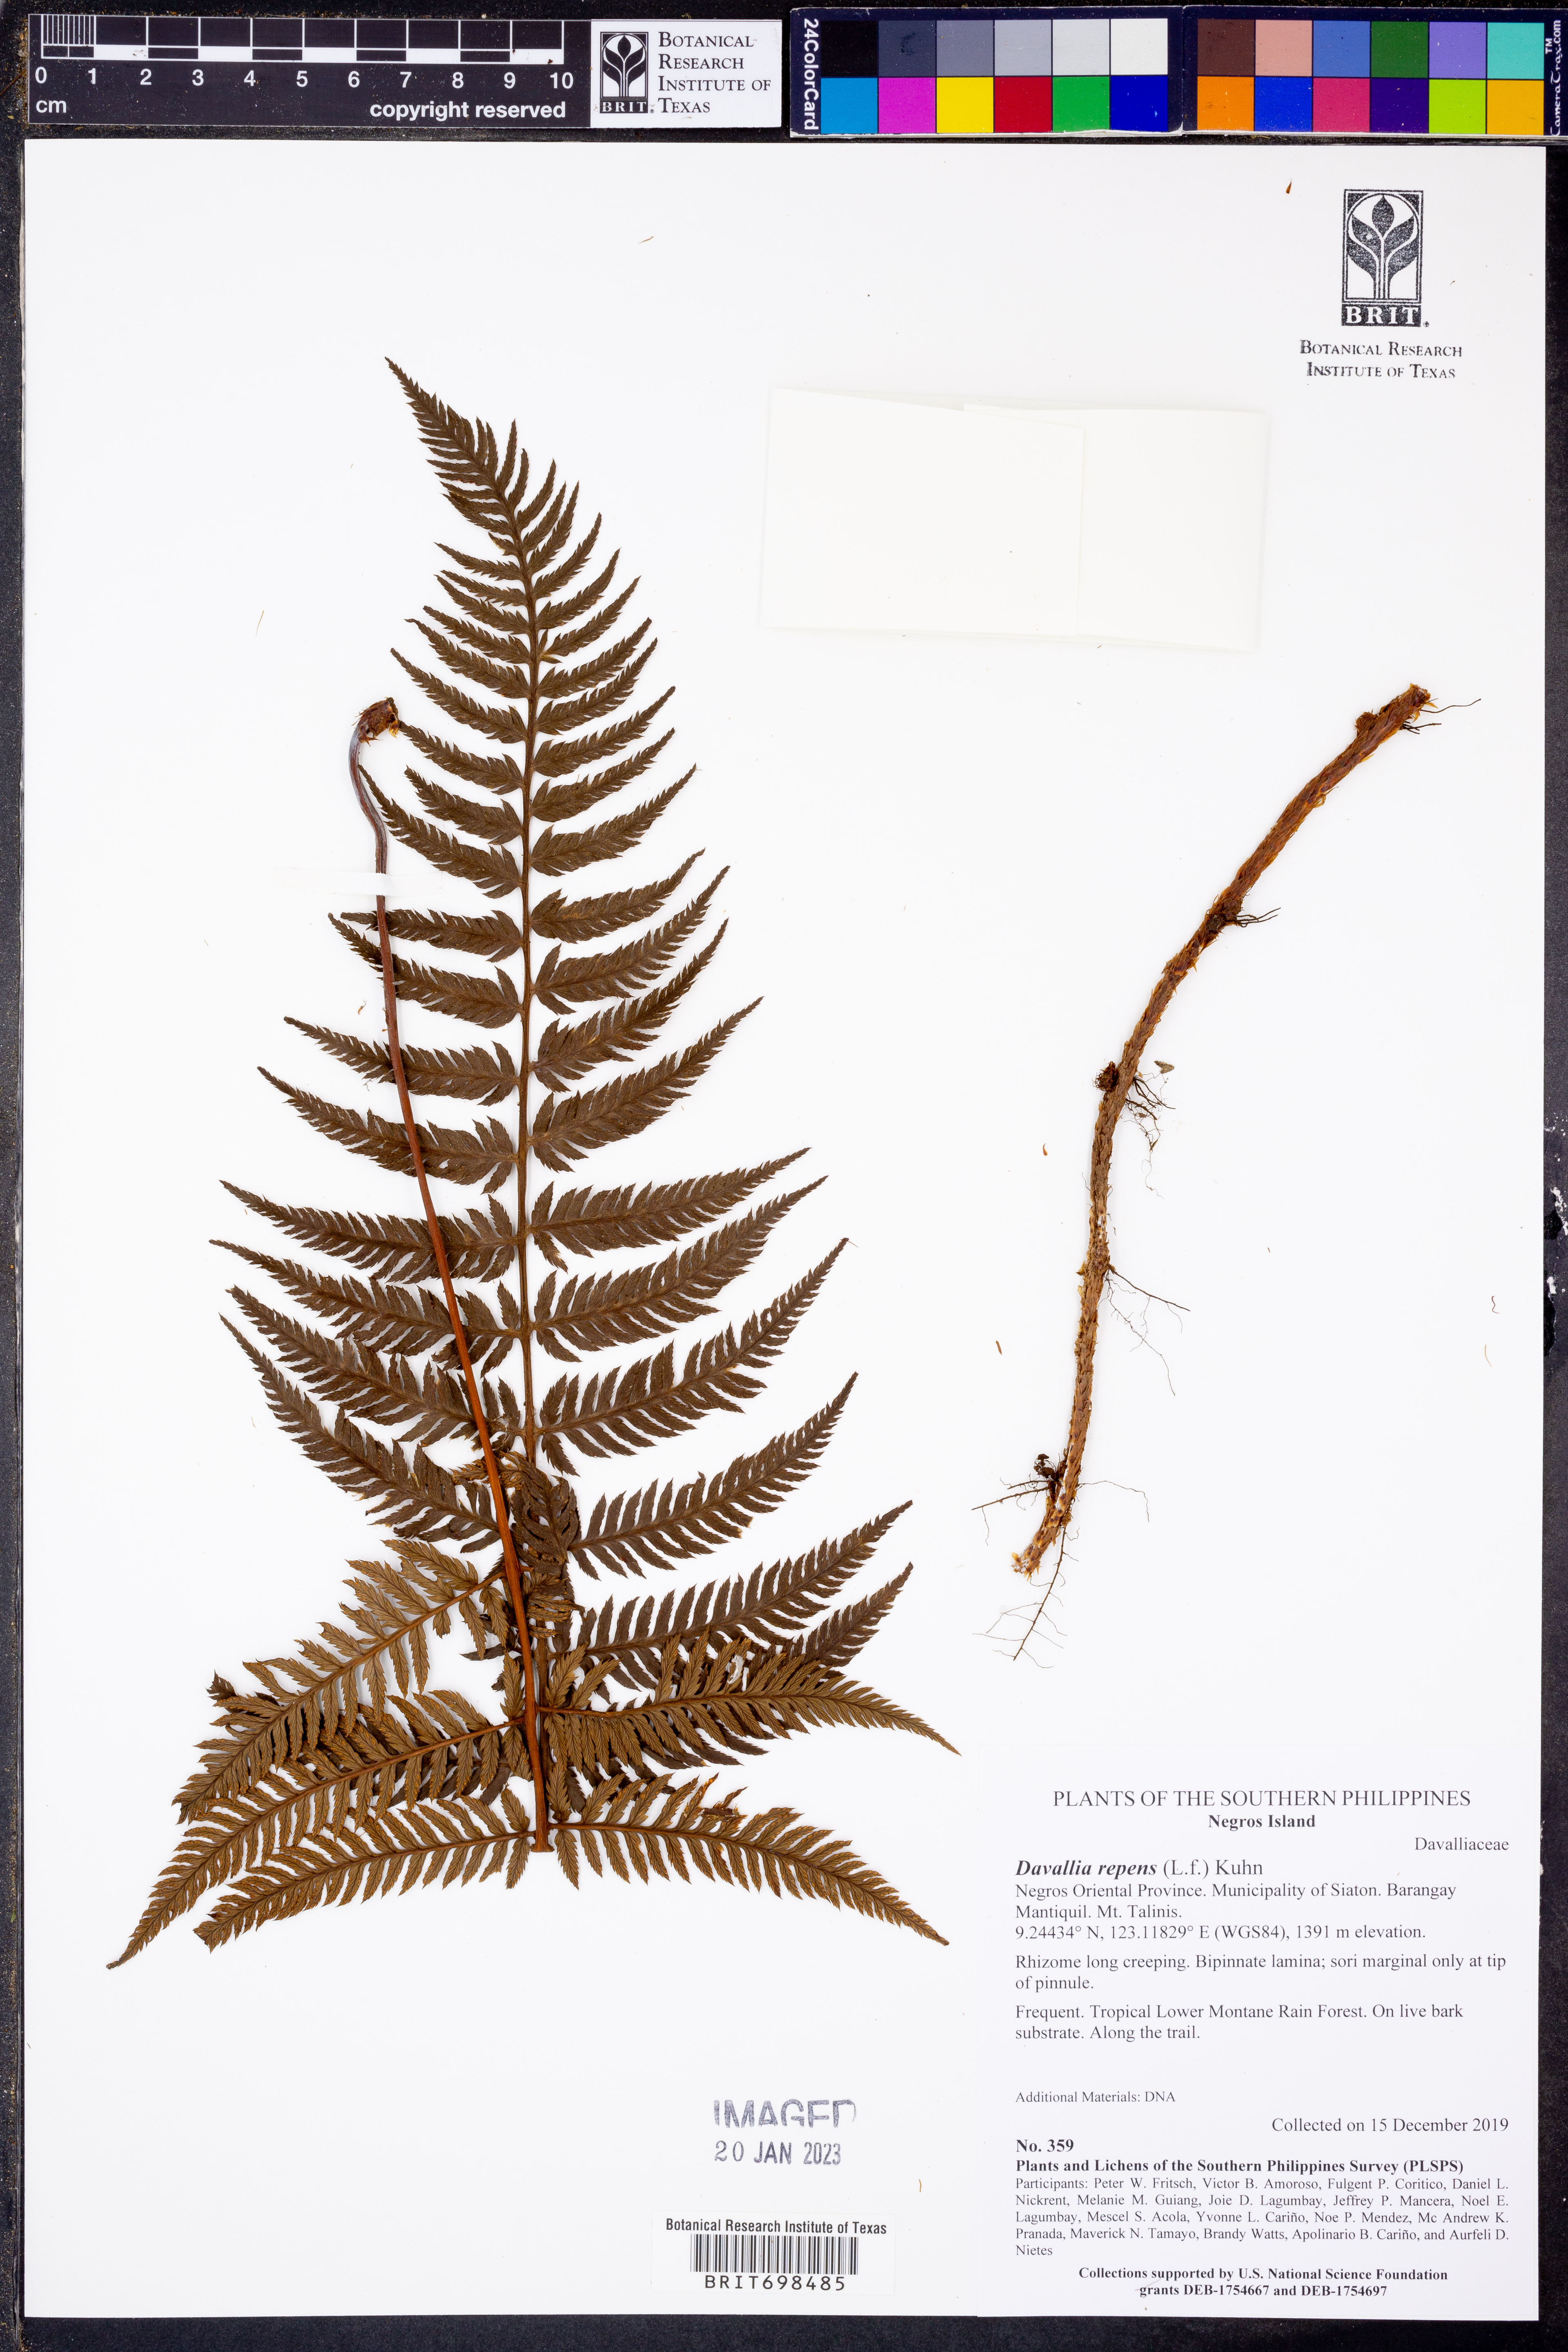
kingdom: Plantae
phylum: Tracheophyta
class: Polypodiopsida
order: Polypodiales
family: Davalliaceae
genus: Davallia
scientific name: Davallia repens
